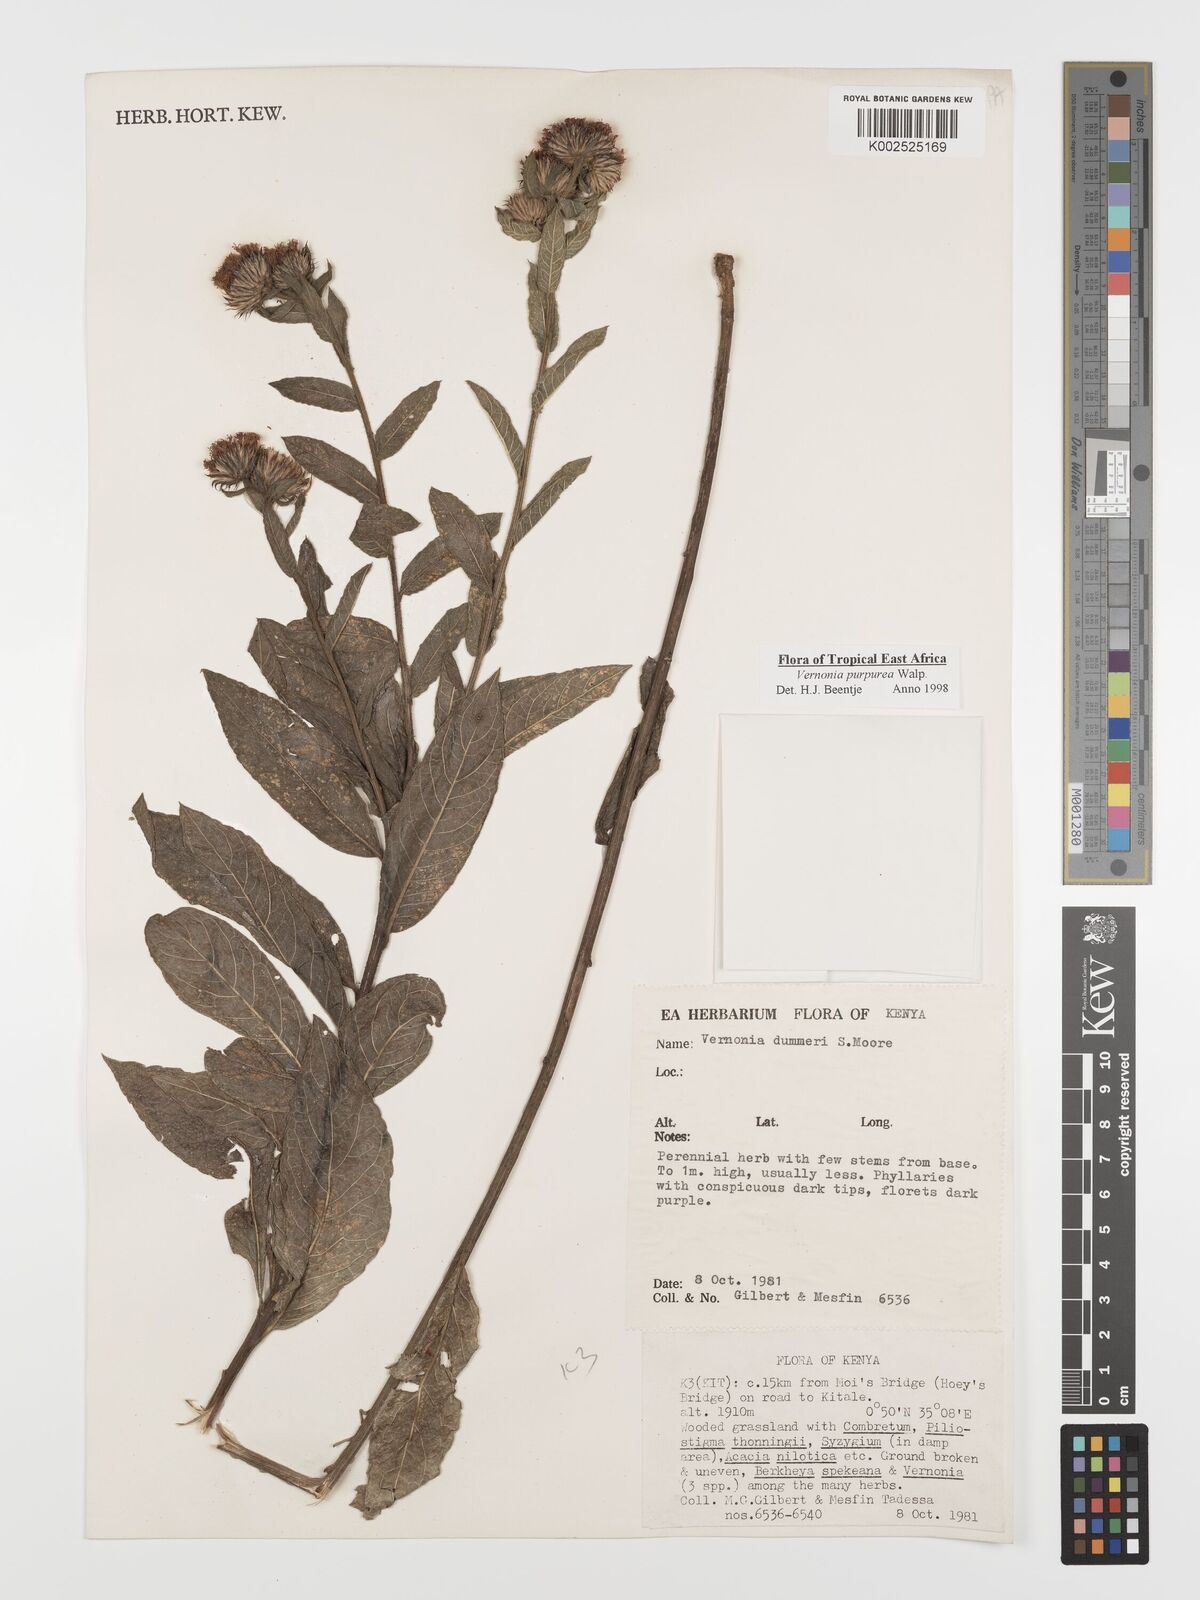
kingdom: Plantae
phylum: Tracheophyta
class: Magnoliopsida
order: Asterales
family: Asteraceae
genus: Nothovernonia
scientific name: Nothovernonia purpurea
